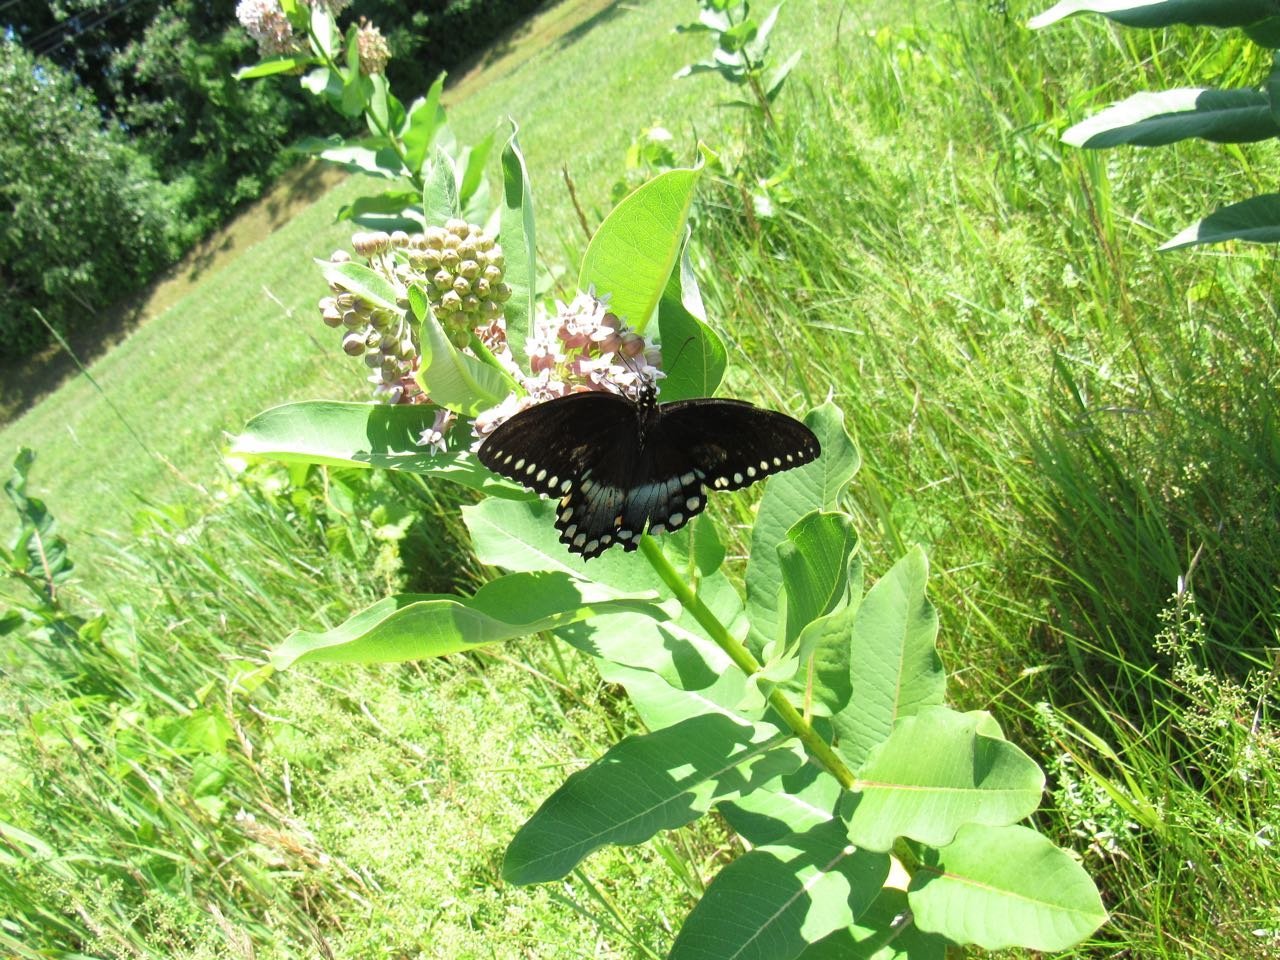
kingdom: Animalia
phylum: Arthropoda
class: Insecta
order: Lepidoptera
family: Papilionidae
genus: Pterourus
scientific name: Pterourus troilus
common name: Spicebush Swallowtail
